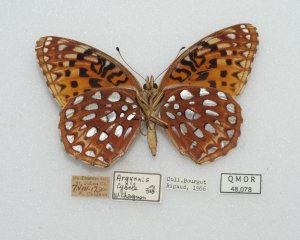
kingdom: Animalia
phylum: Arthropoda
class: Insecta
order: Lepidoptera
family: Nymphalidae
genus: Speyeria
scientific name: Speyeria aphrodite
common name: Aphrodite Fritillary
